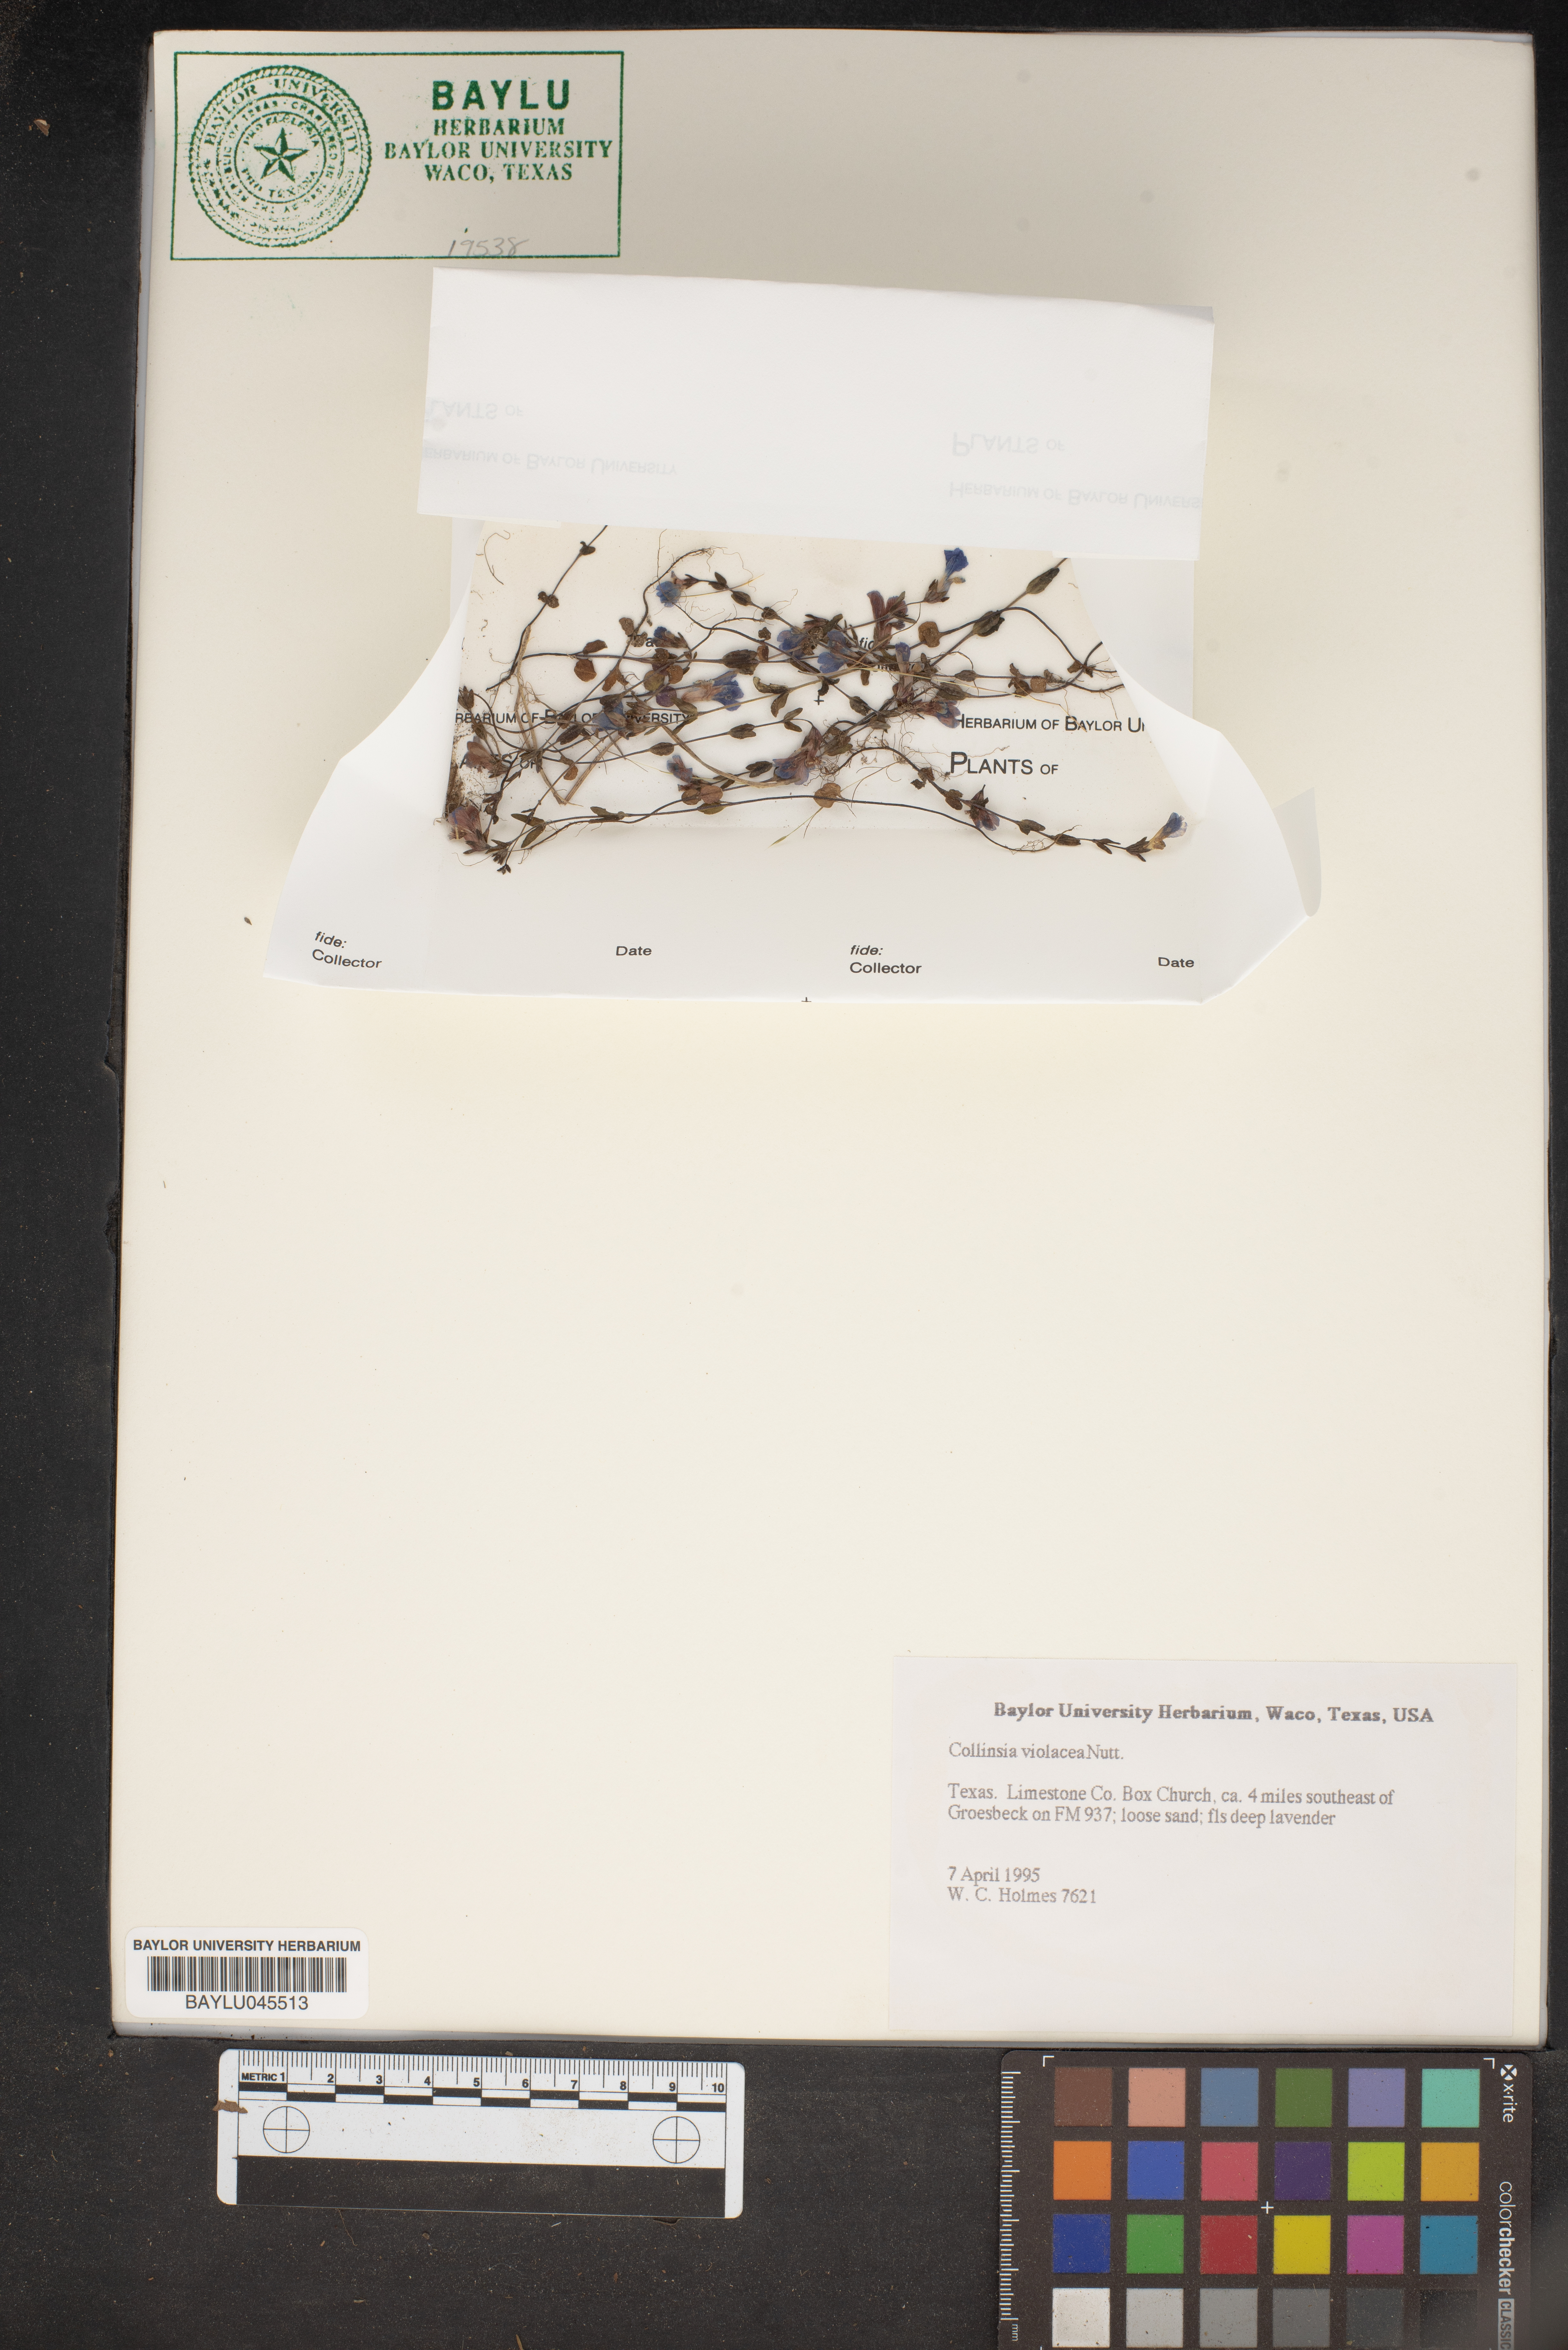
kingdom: Plantae
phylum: Tracheophyta
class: Magnoliopsida
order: Lamiales
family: Plantaginaceae
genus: Collinsia
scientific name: Collinsia violacea
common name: Violet collinsia
